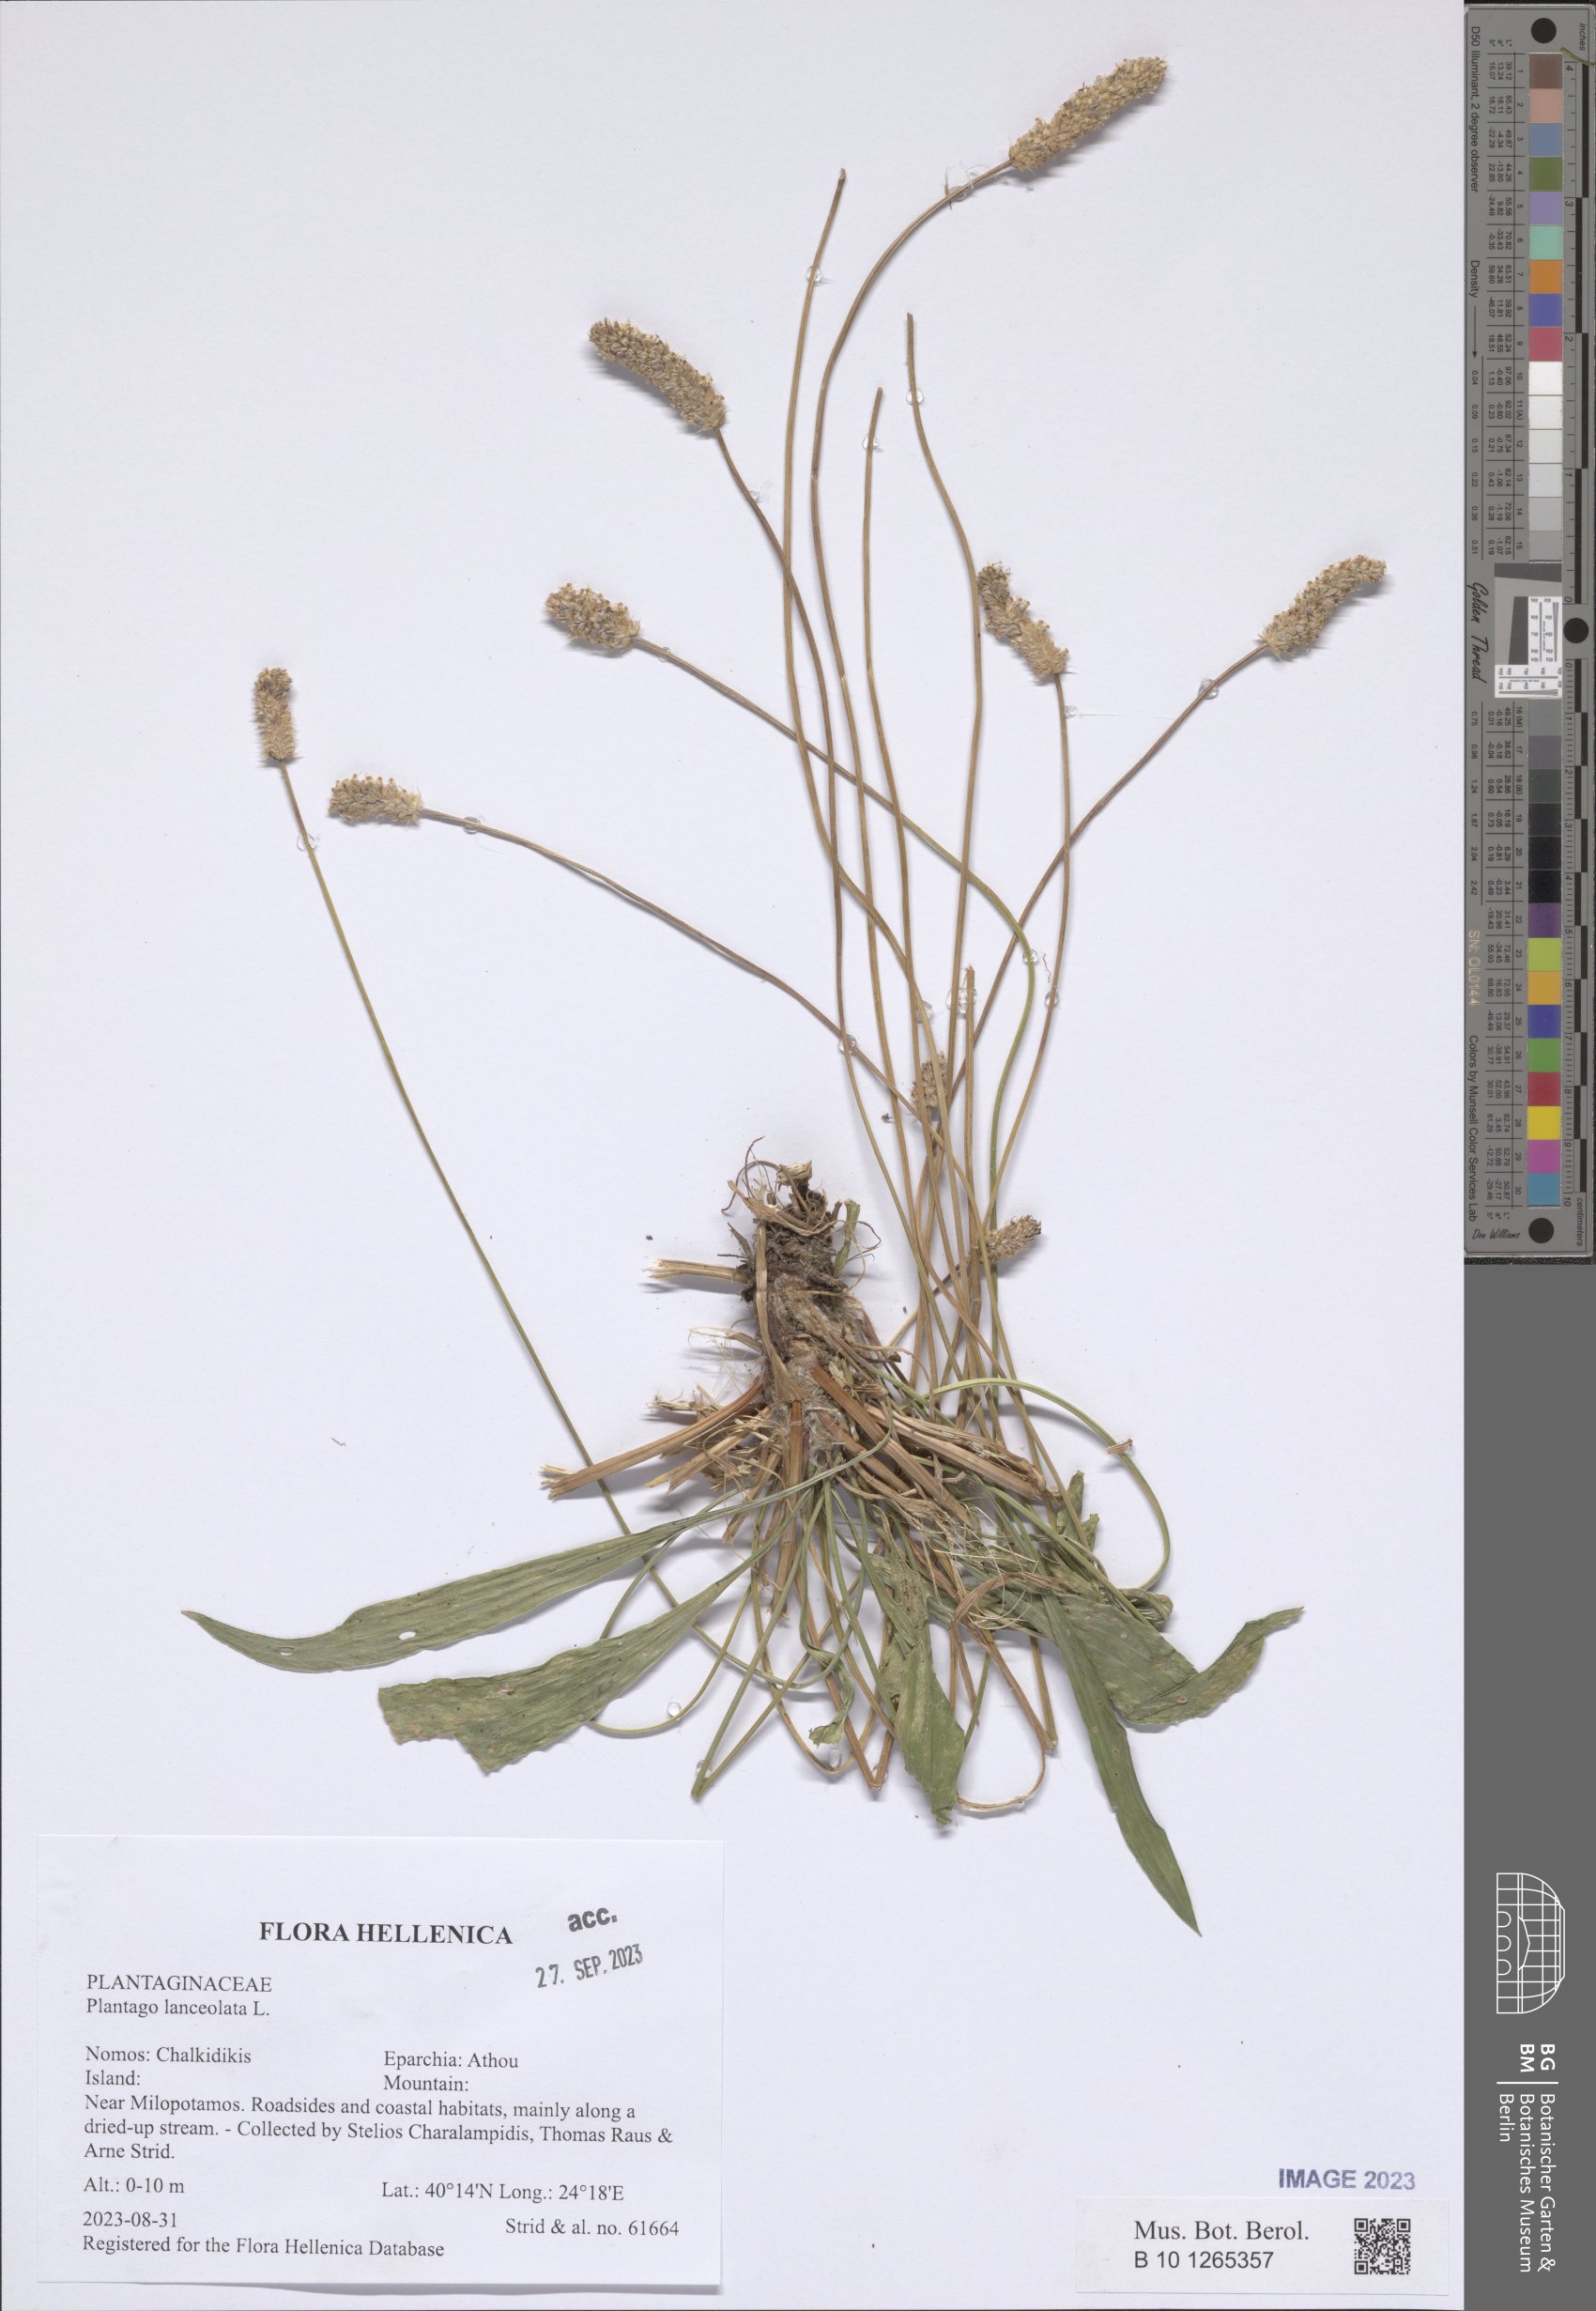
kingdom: Plantae
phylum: Tracheophyta
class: Magnoliopsida
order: Lamiales
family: Plantaginaceae
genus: Plantago
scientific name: Plantago lanceolata
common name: Ribwort plantain
